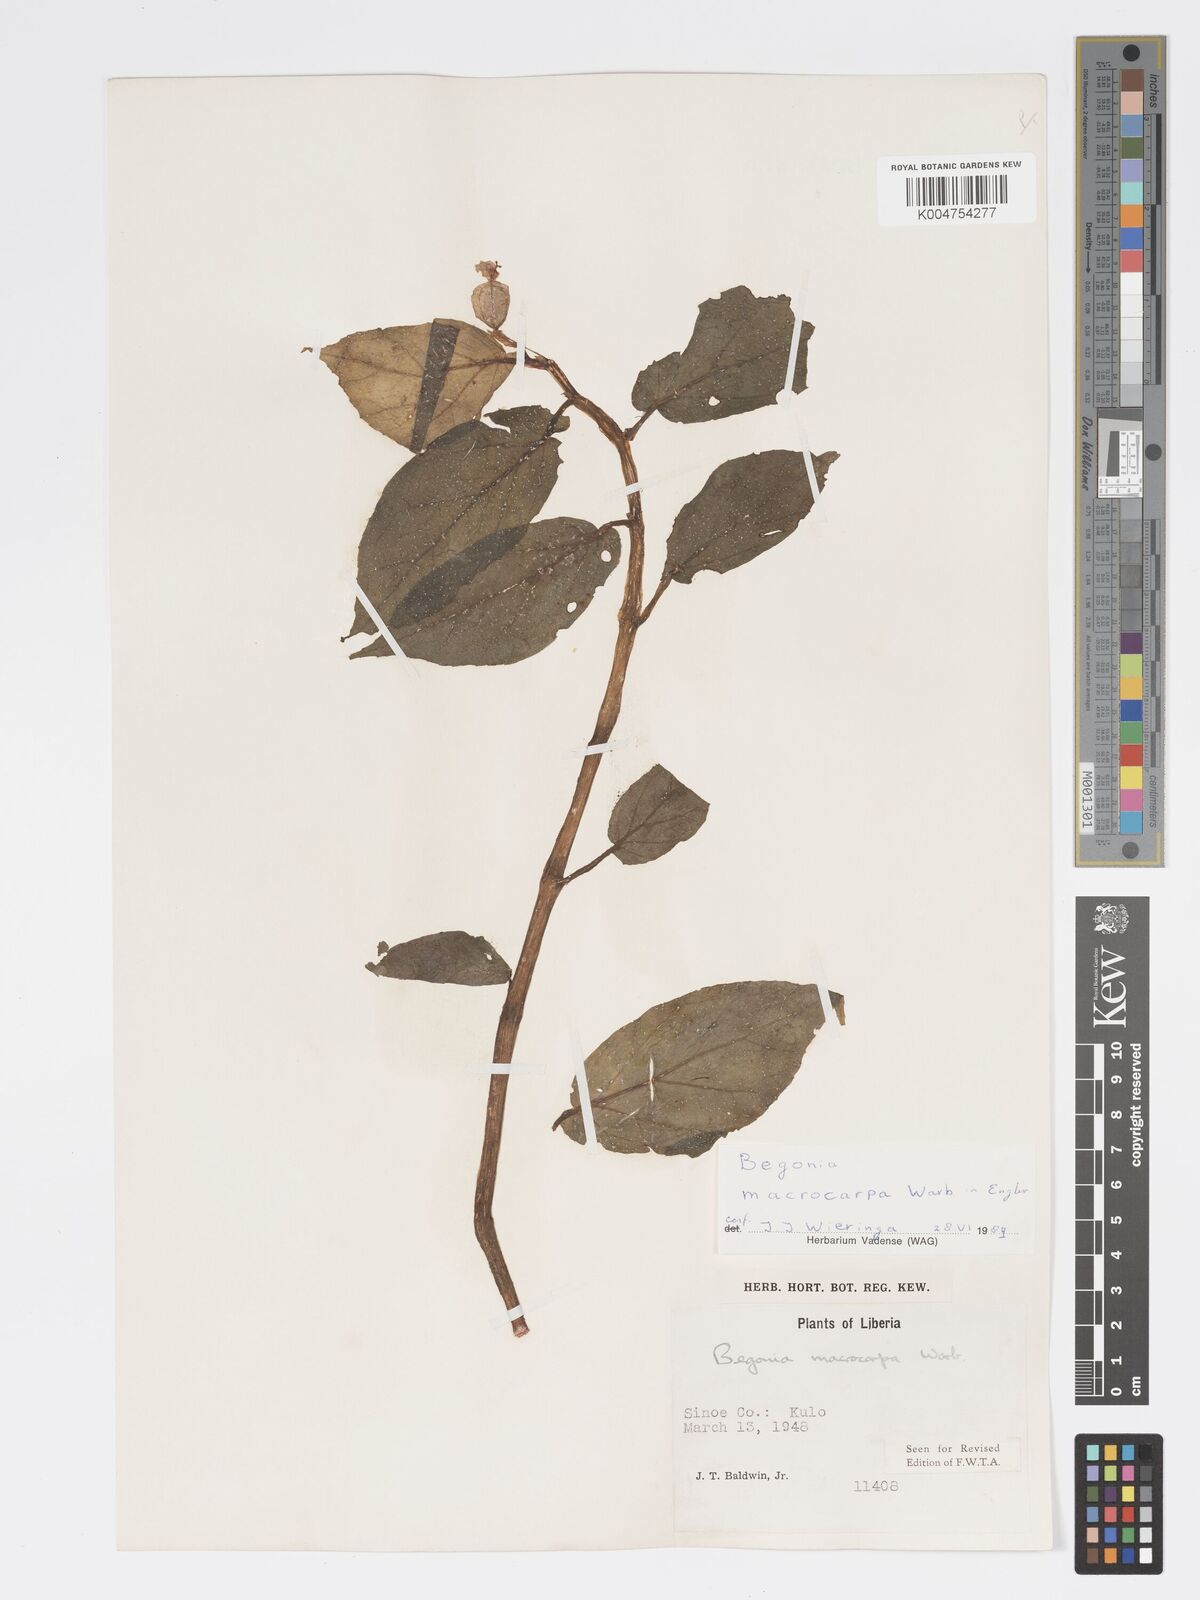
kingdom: Plantae
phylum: Tracheophyta
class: Magnoliopsida
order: Cucurbitales
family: Begoniaceae
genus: Begonia
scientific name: Begonia macrocarpa
